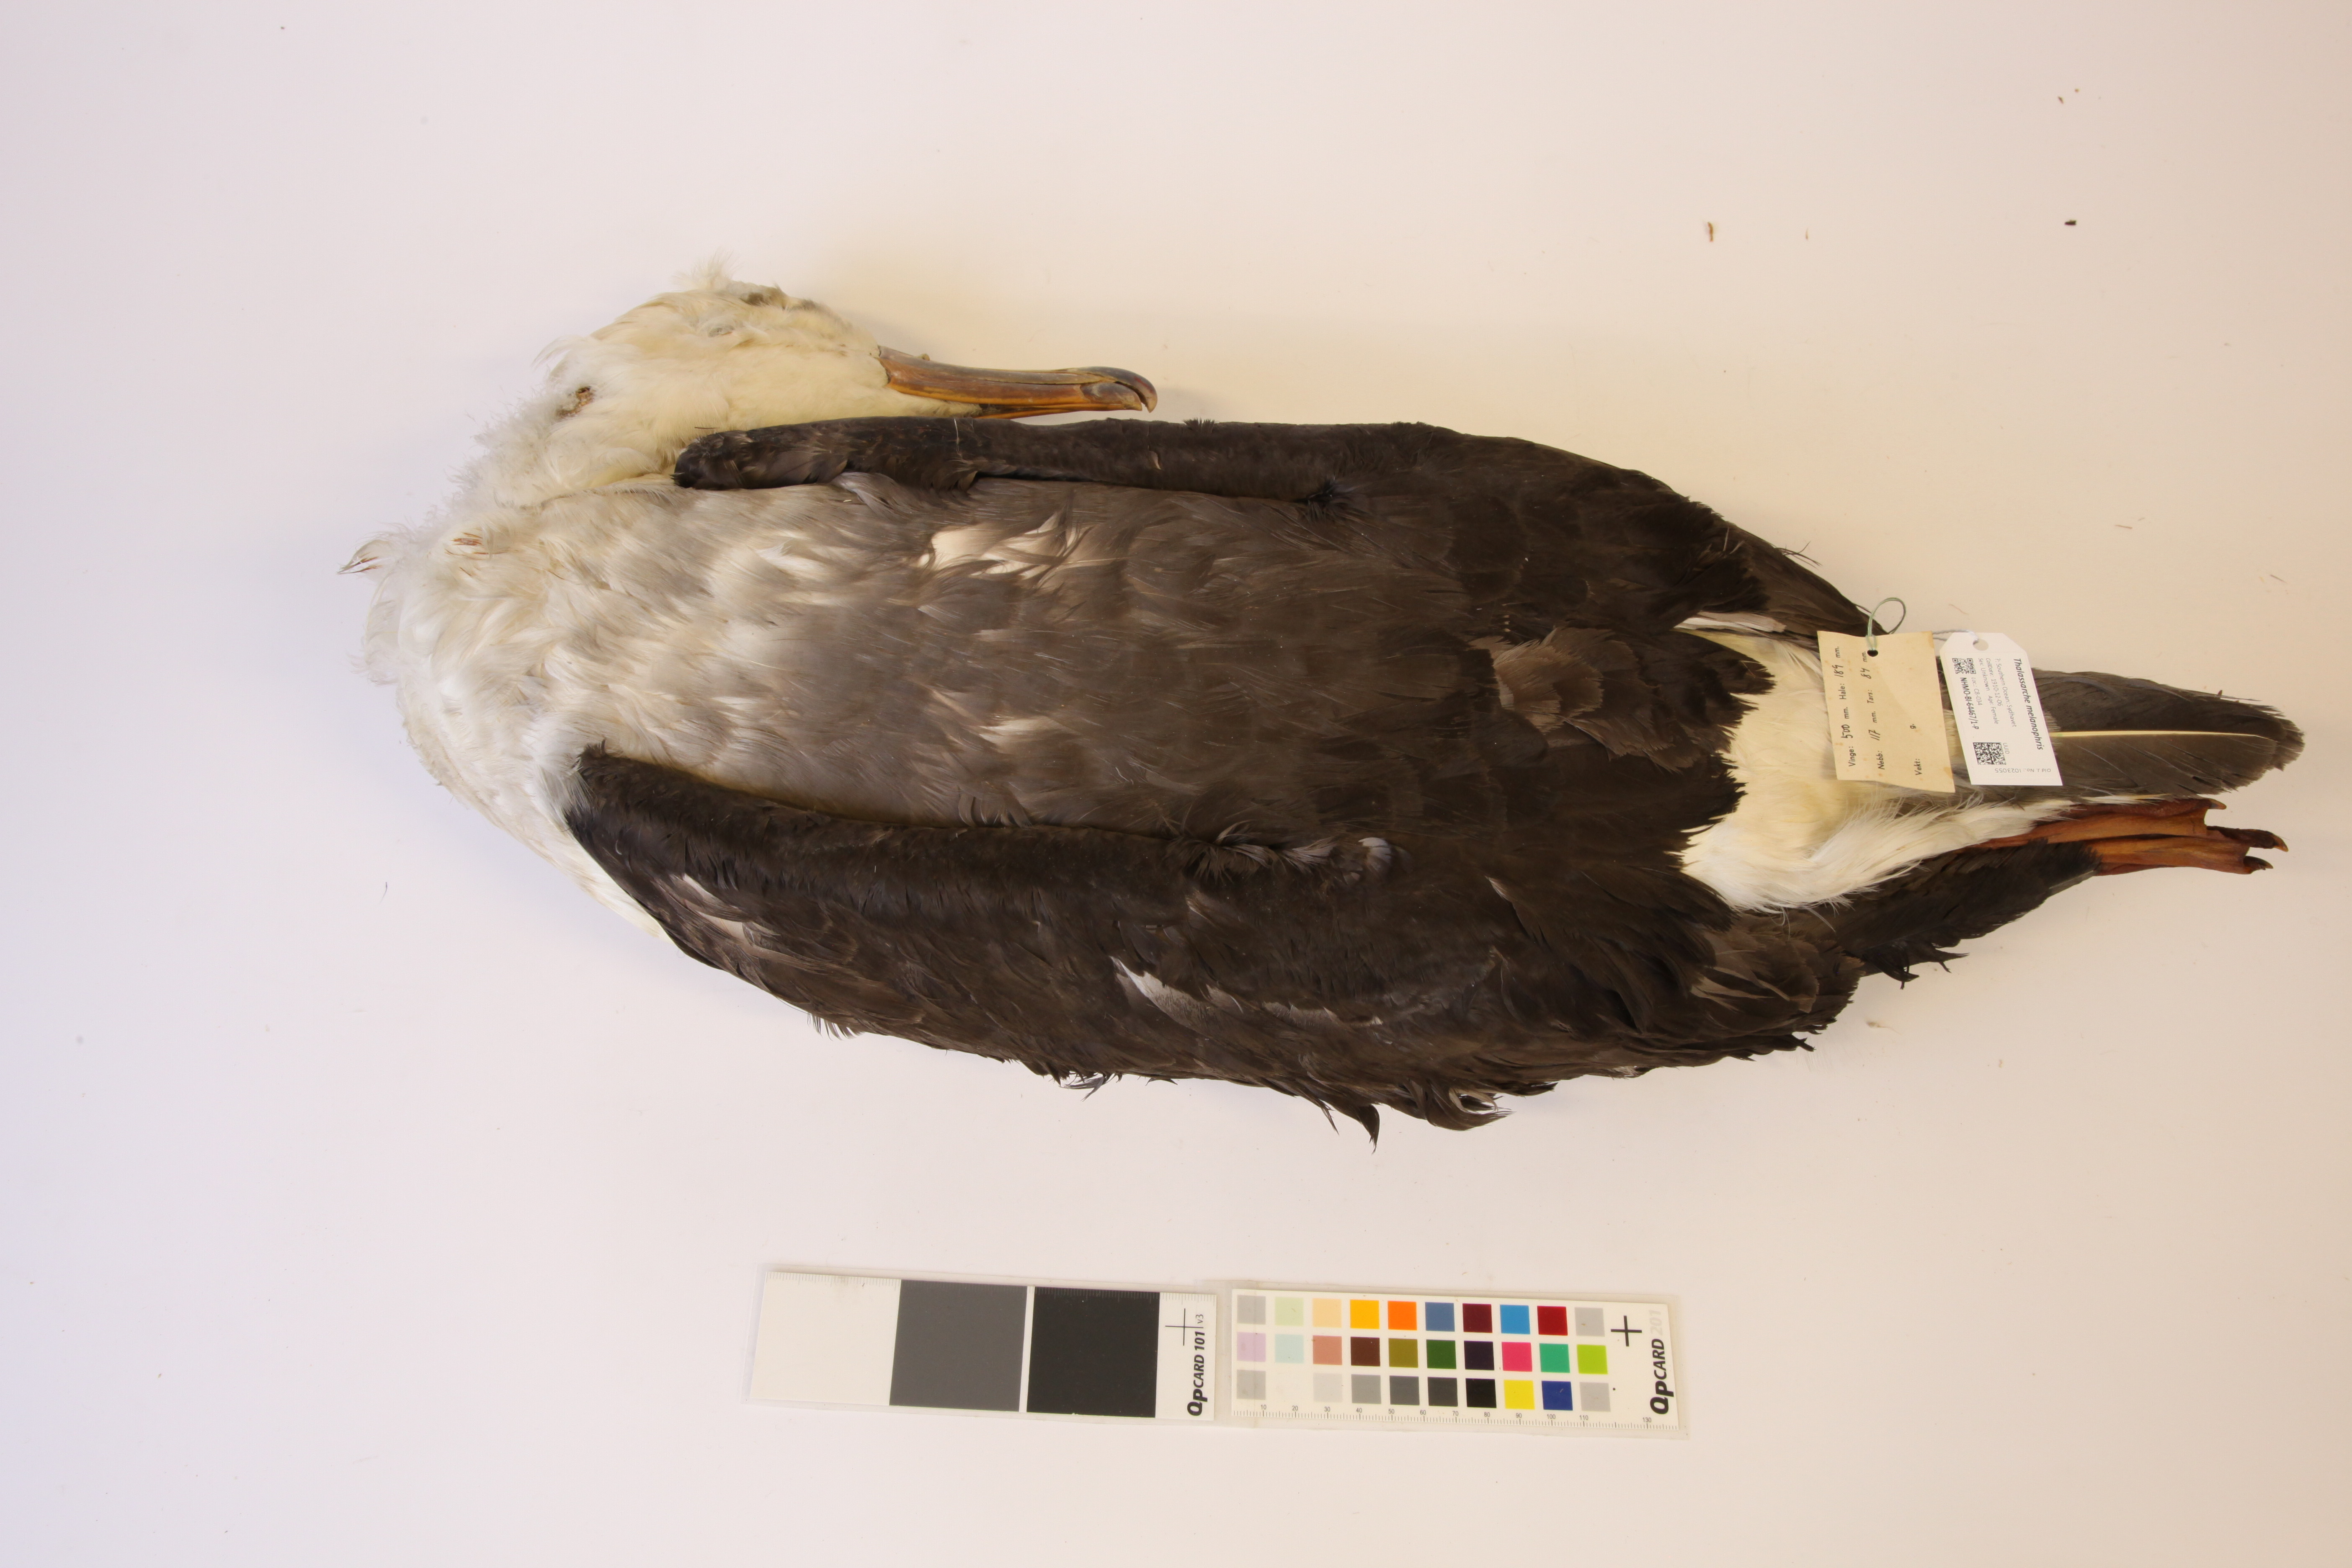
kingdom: Animalia
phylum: Chordata
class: Aves
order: Procellariiformes
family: Diomedeidae
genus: Thalassarche
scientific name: Thalassarche melanophris
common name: Black-browed albatross
